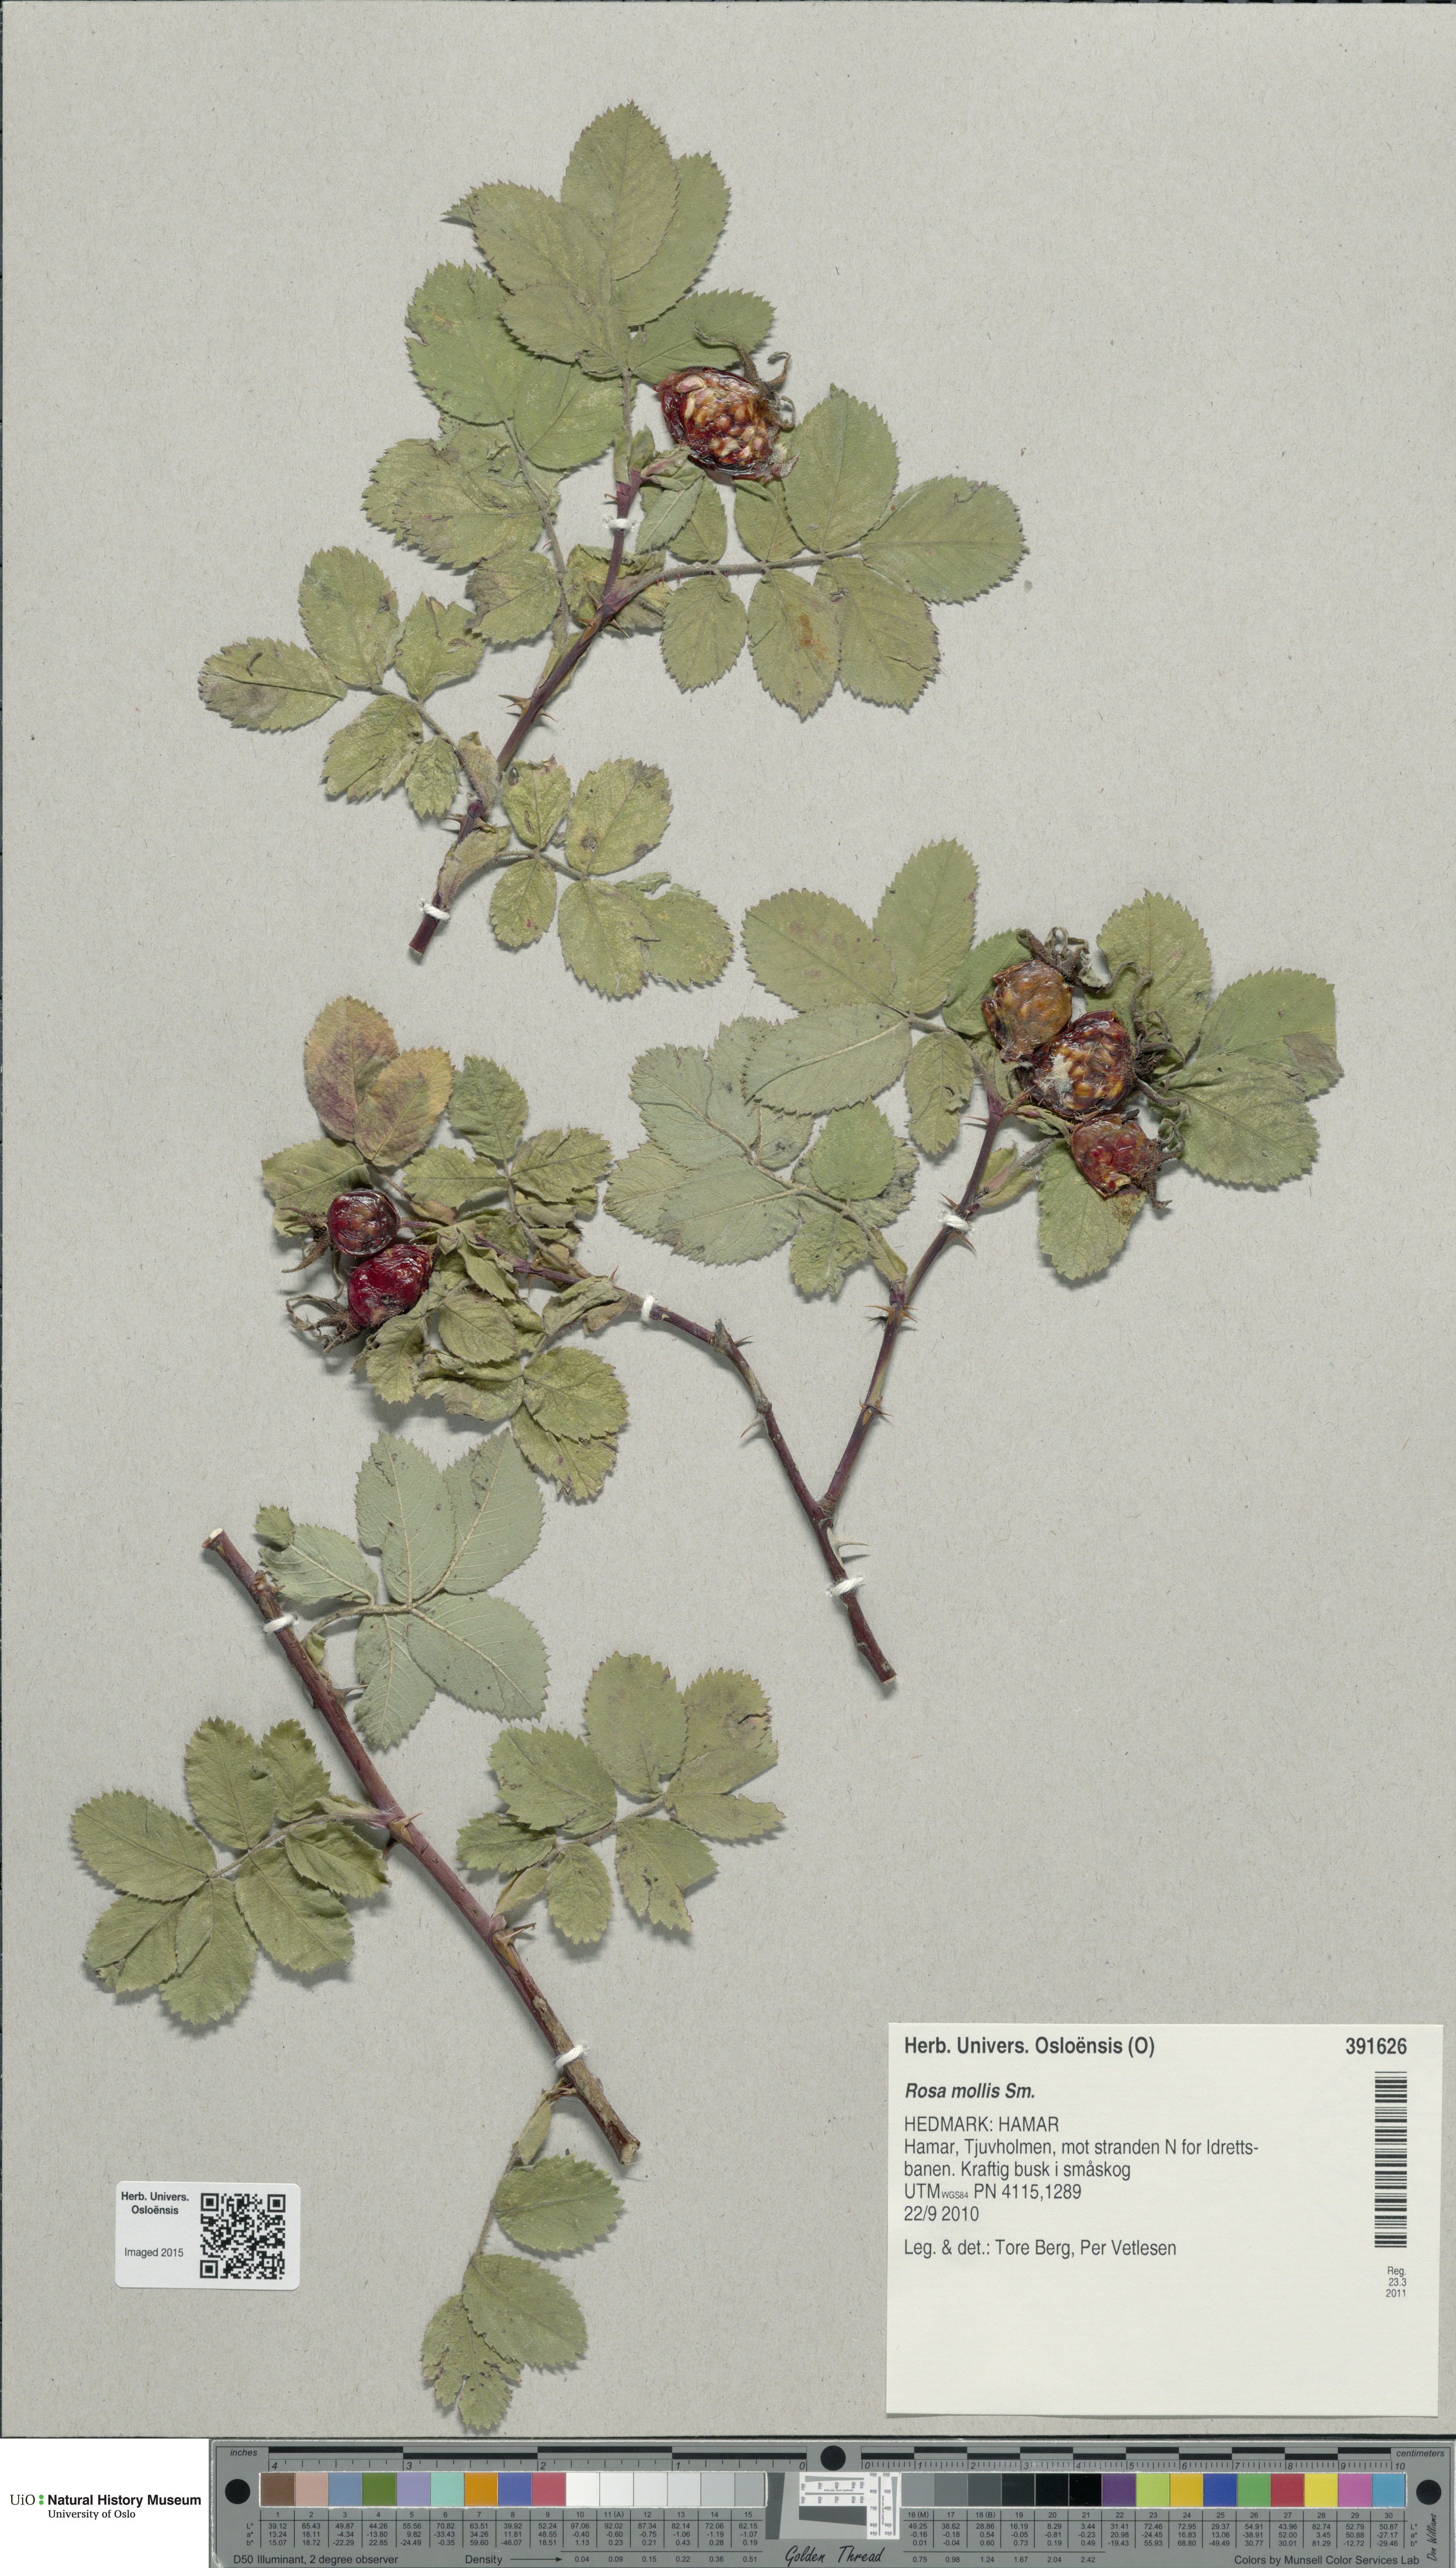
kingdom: Plantae
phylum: Tracheophyta
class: Magnoliopsida
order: Rosales
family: Rosaceae
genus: Rosa
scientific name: Rosa mollis
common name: Rose
